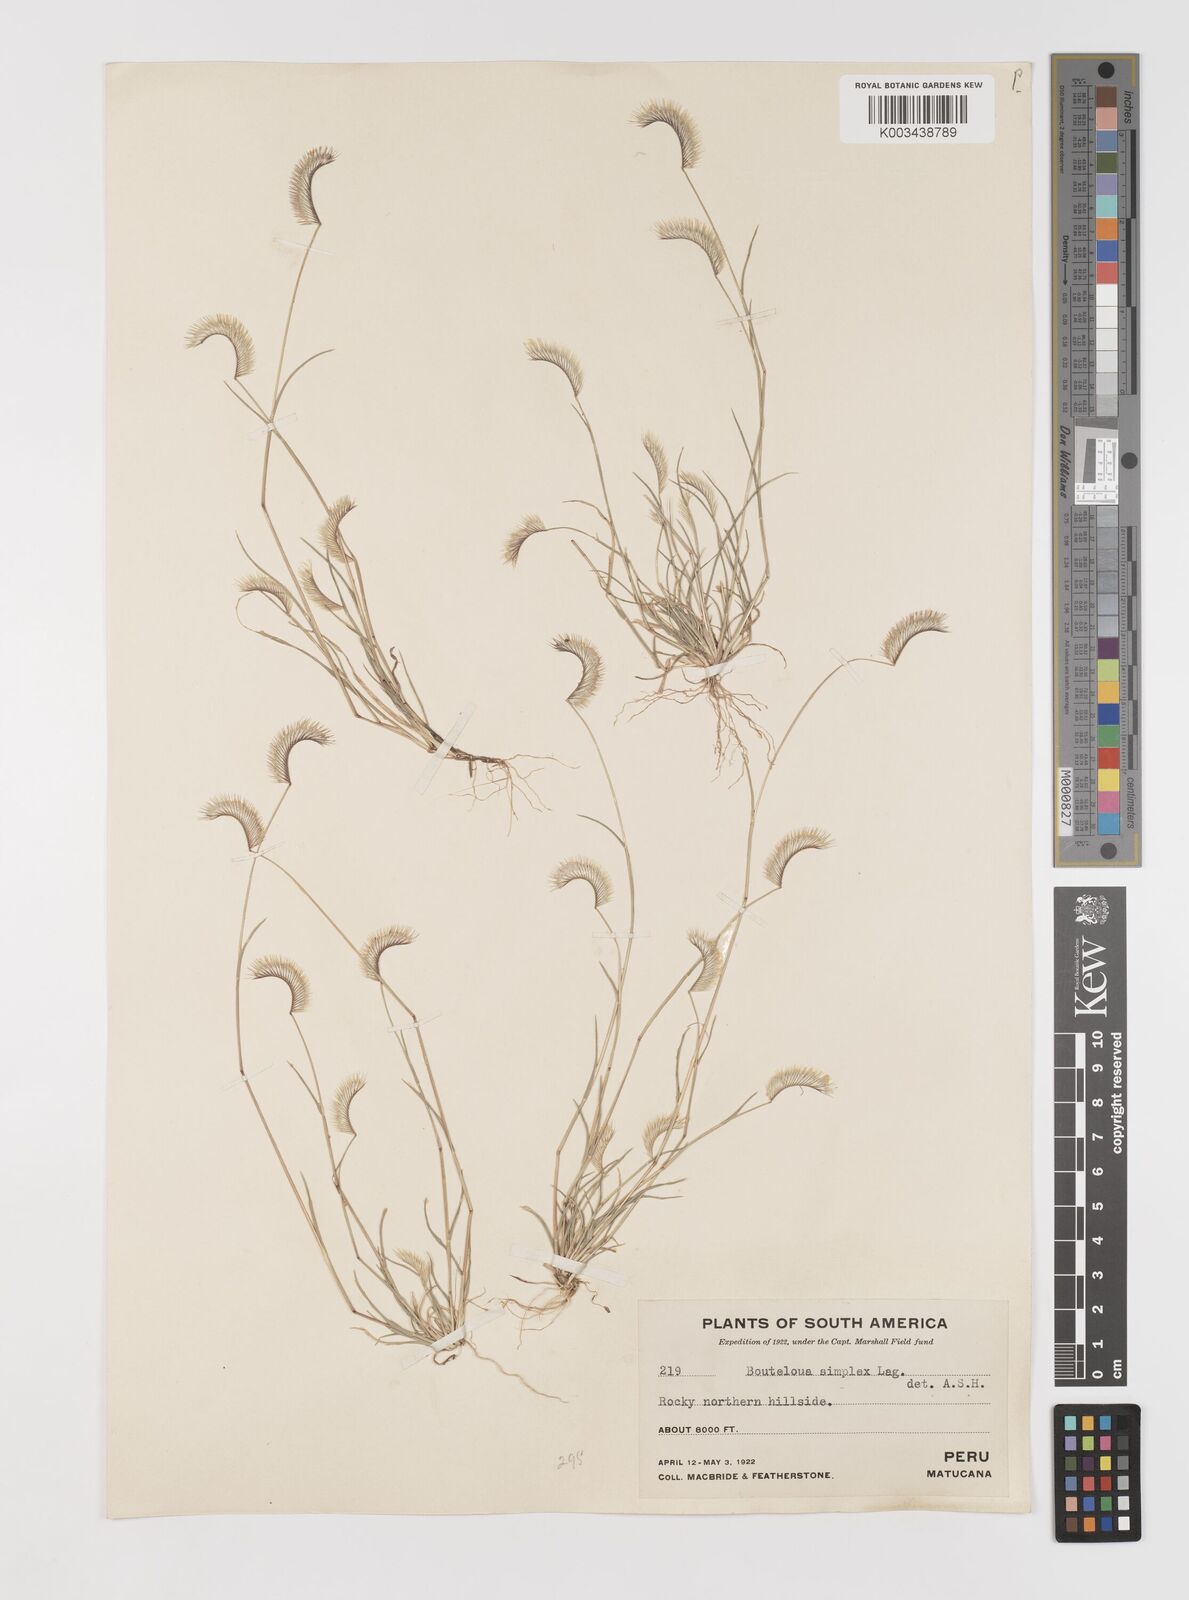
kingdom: Plantae
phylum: Tracheophyta
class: Liliopsida
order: Poales
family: Poaceae
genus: Bouteloua
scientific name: Bouteloua simplex
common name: Mat grama
